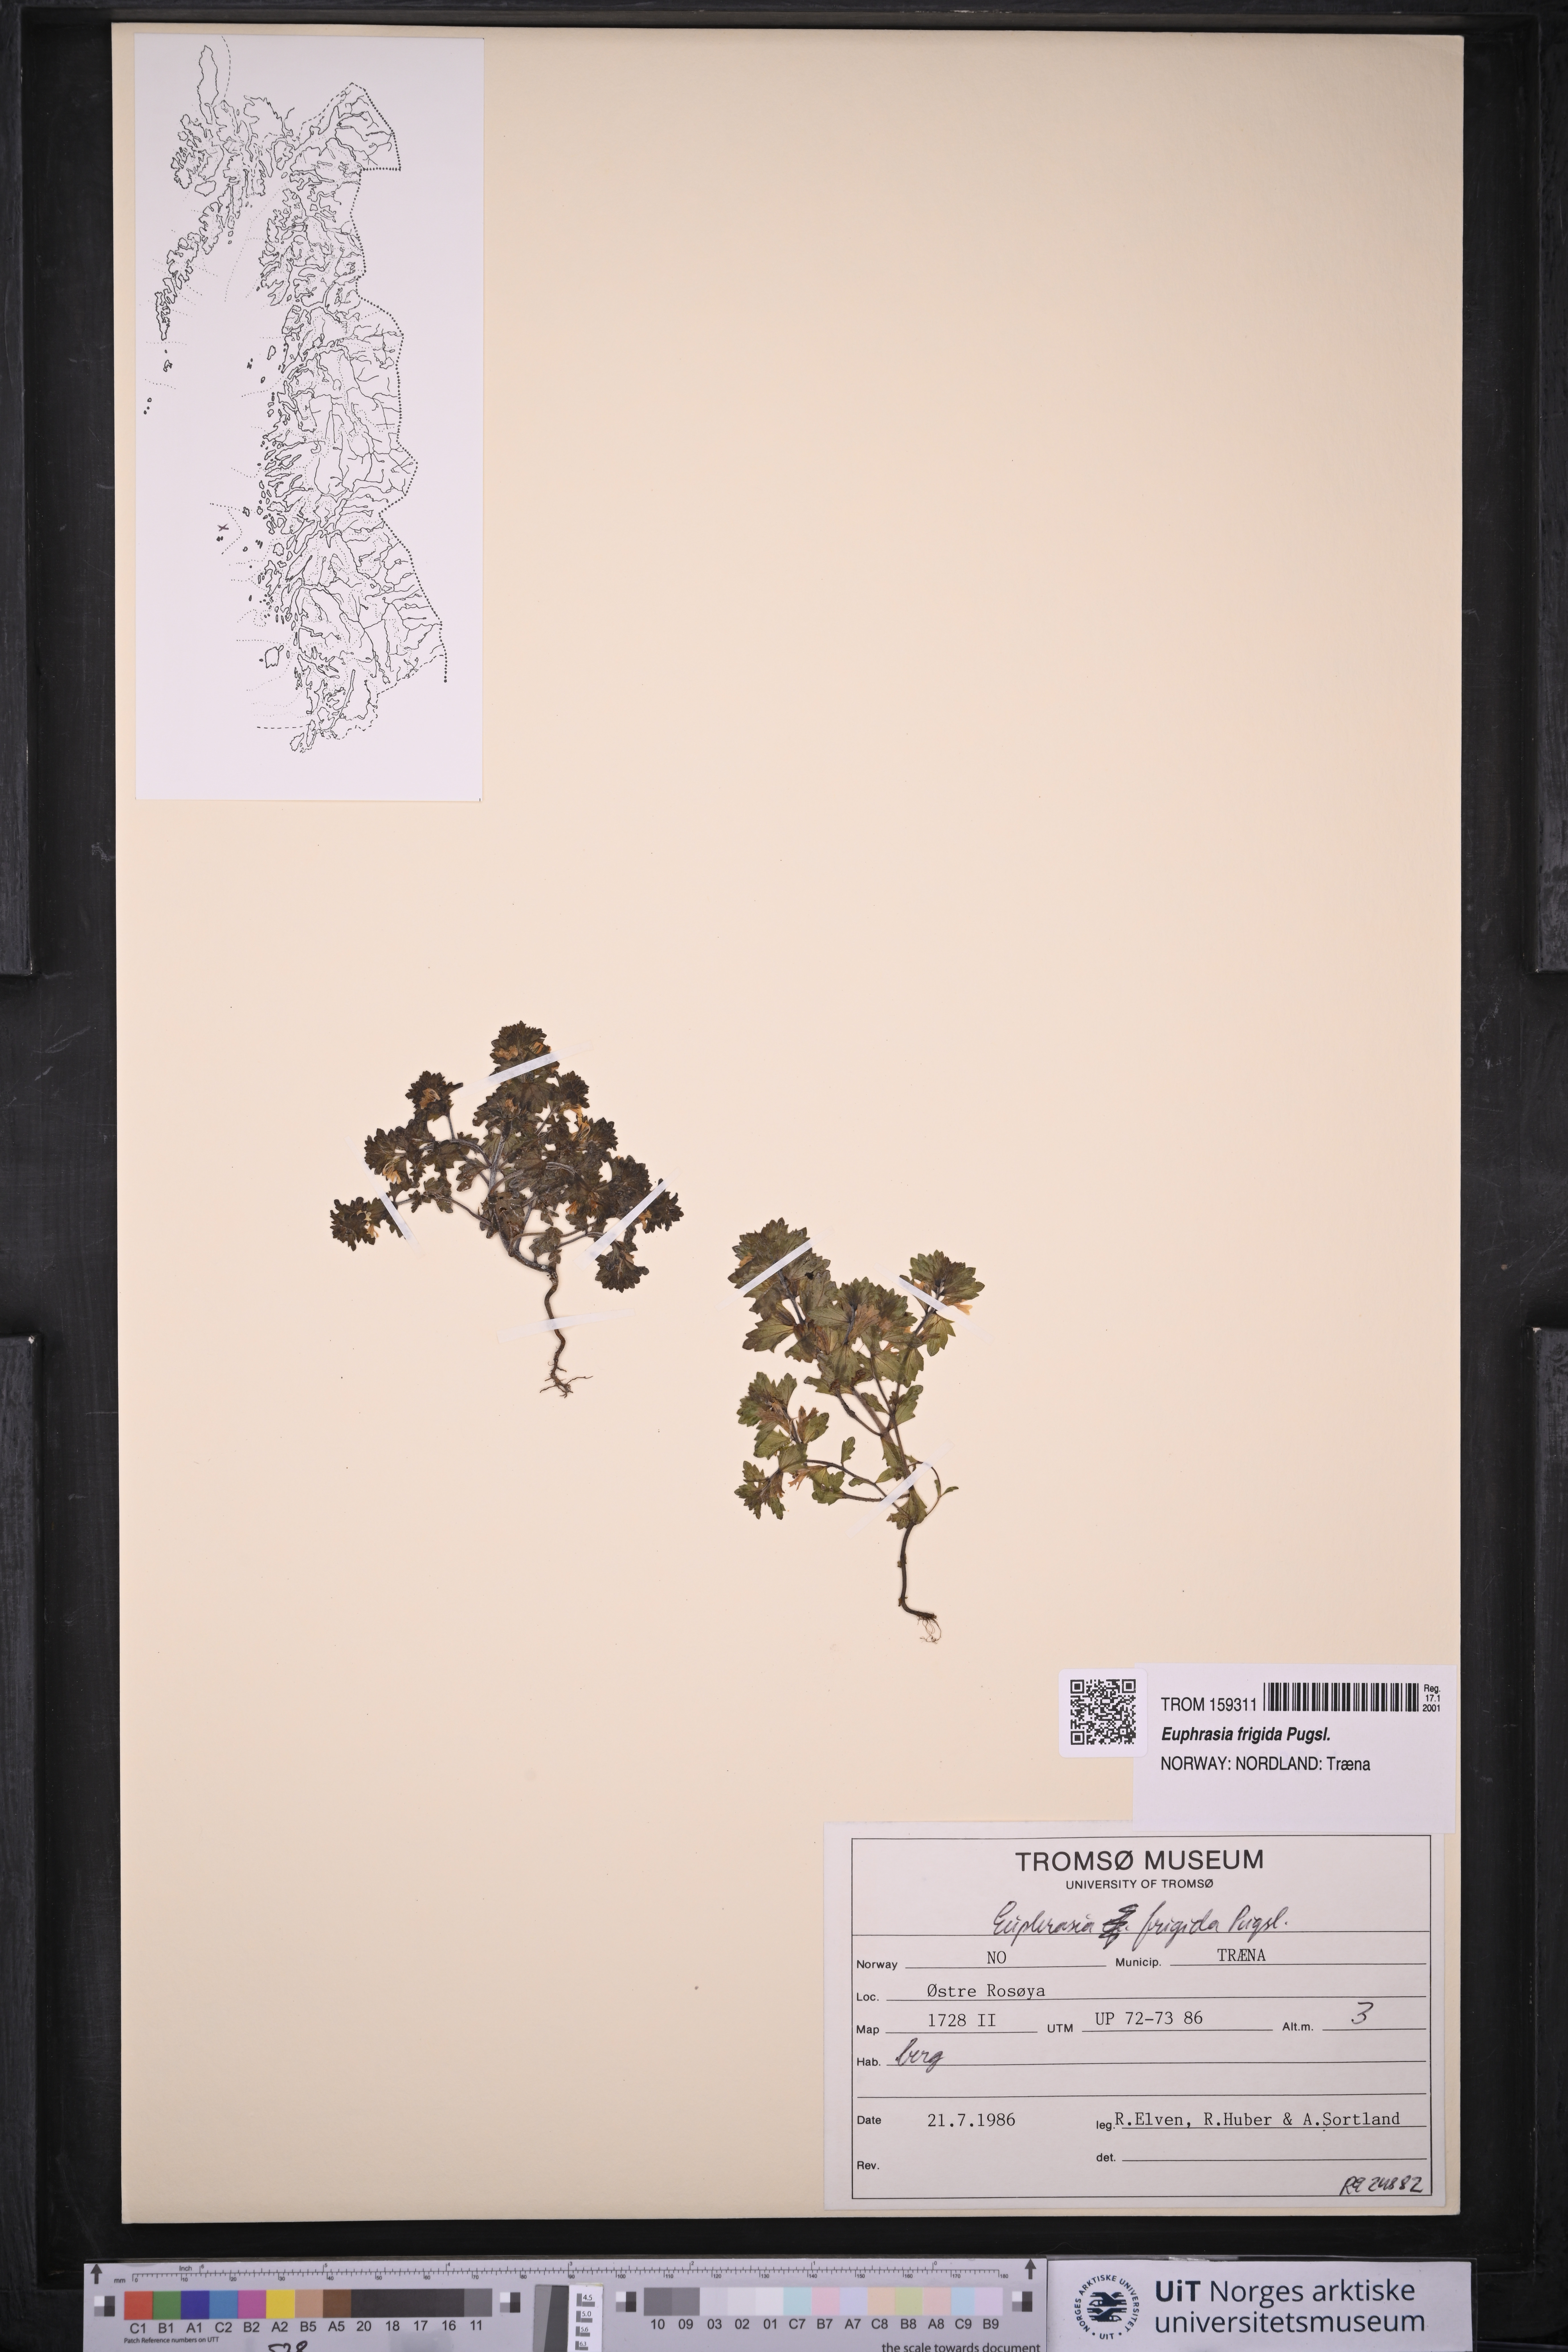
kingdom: Plantae
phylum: Tracheophyta
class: Magnoliopsida
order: Lamiales
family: Orobanchaceae
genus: Euphrasia
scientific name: Euphrasia frigida
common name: An eyebright
